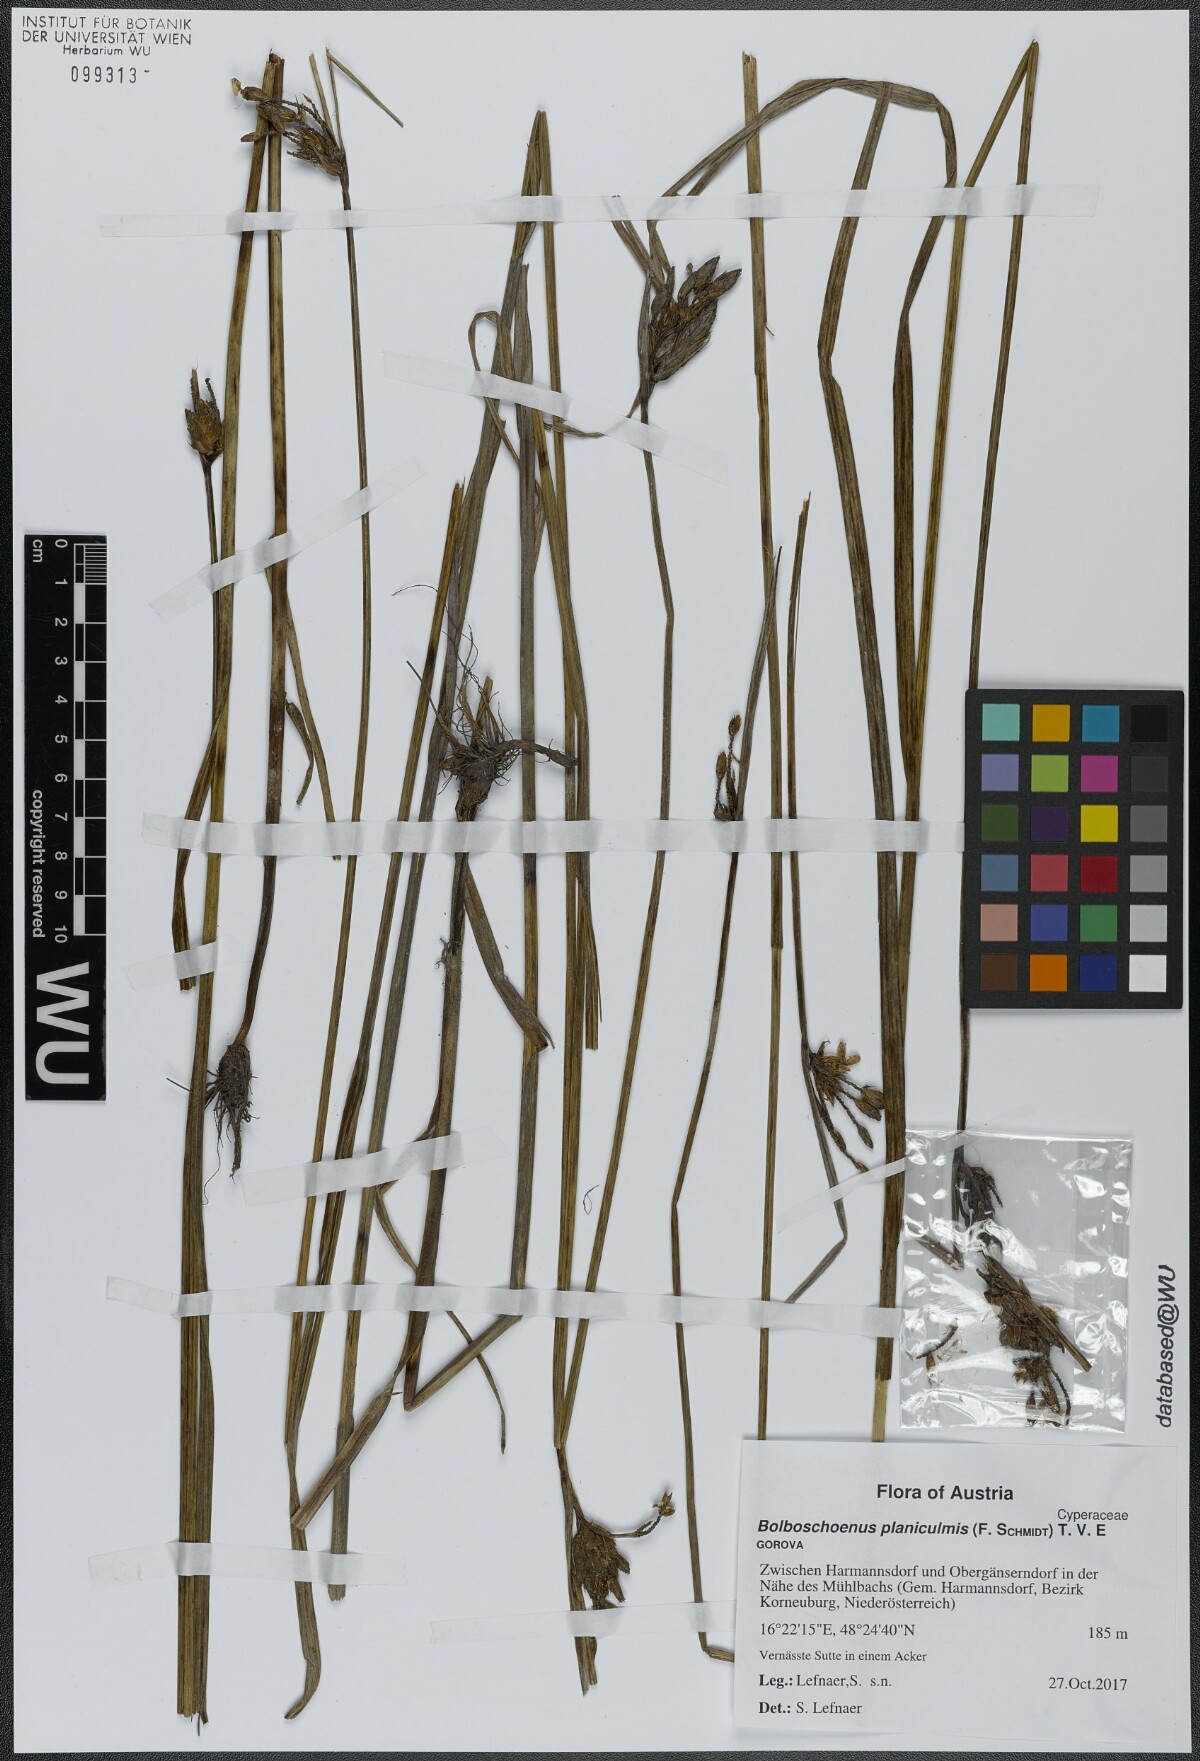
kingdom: Plantae
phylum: Tracheophyta
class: Liliopsida
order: Poales
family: Cyperaceae
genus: Bolboschoenus
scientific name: Bolboschoenus planiculmis
